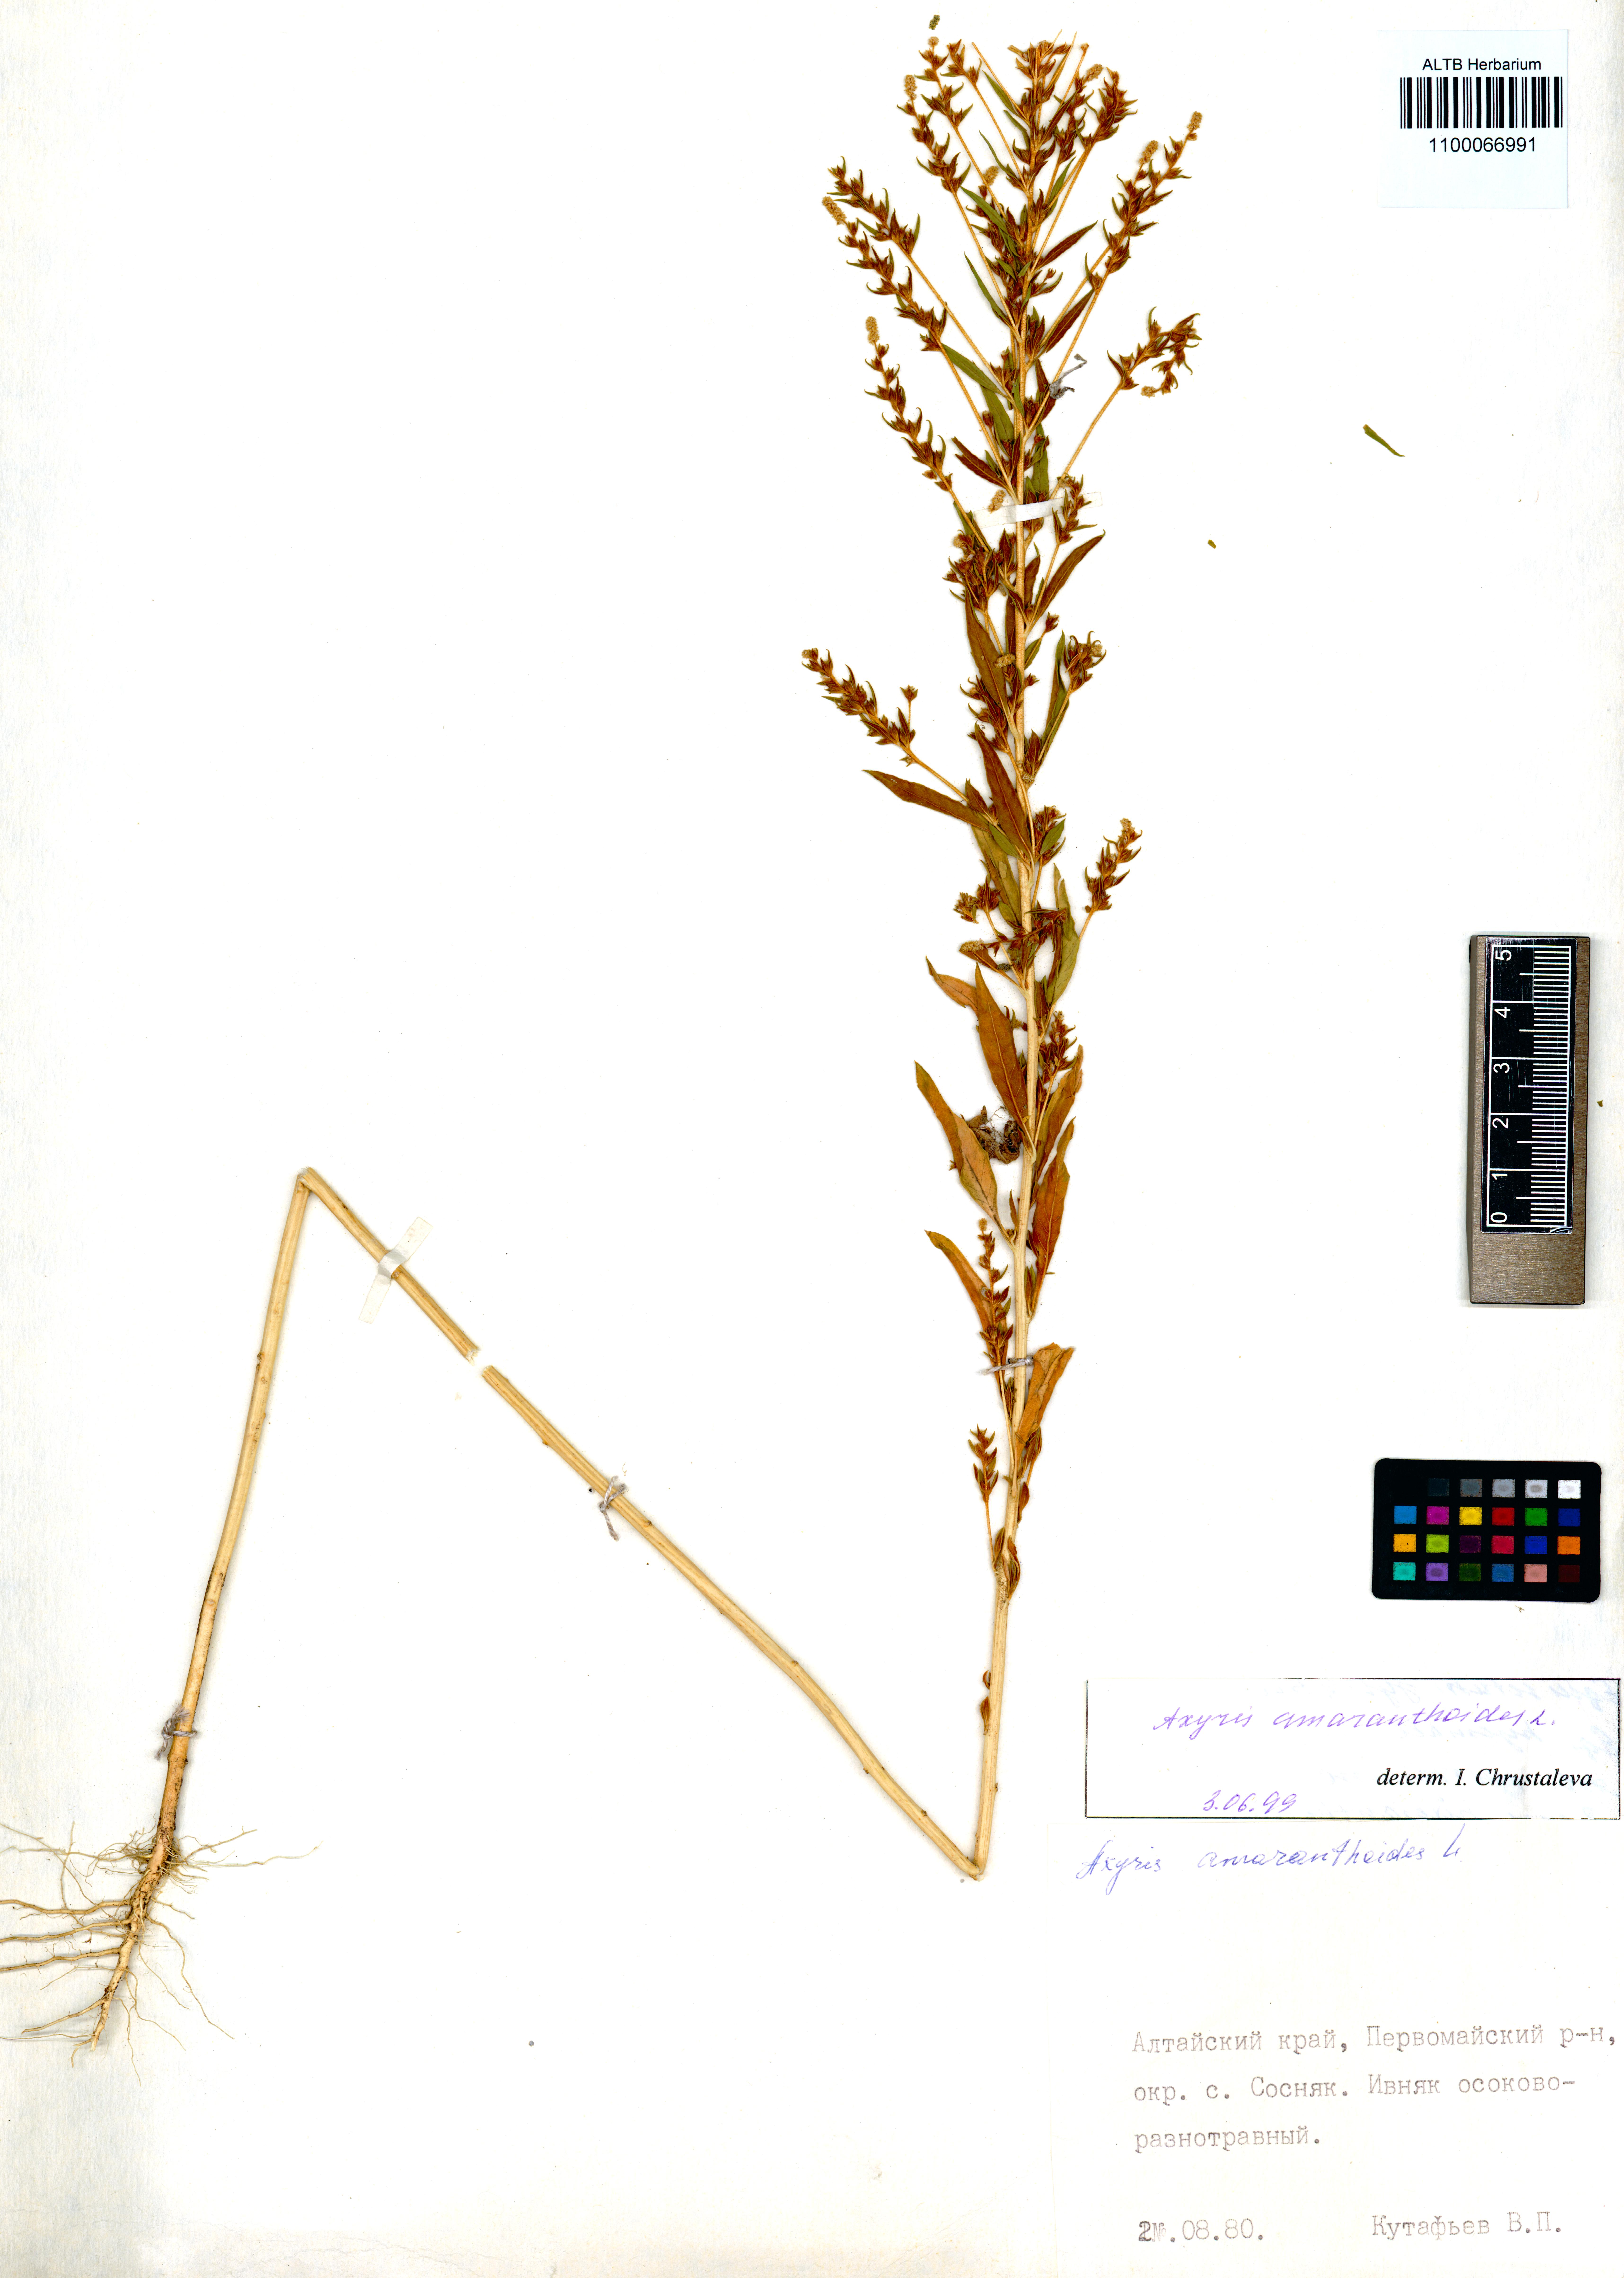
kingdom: Plantae
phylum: Tracheophyta
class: Magnoliopsida
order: Caryophyllales
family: Amaranthaceae
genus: Axyris
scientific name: Axyris amaranthoides
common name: Russian pigweed
